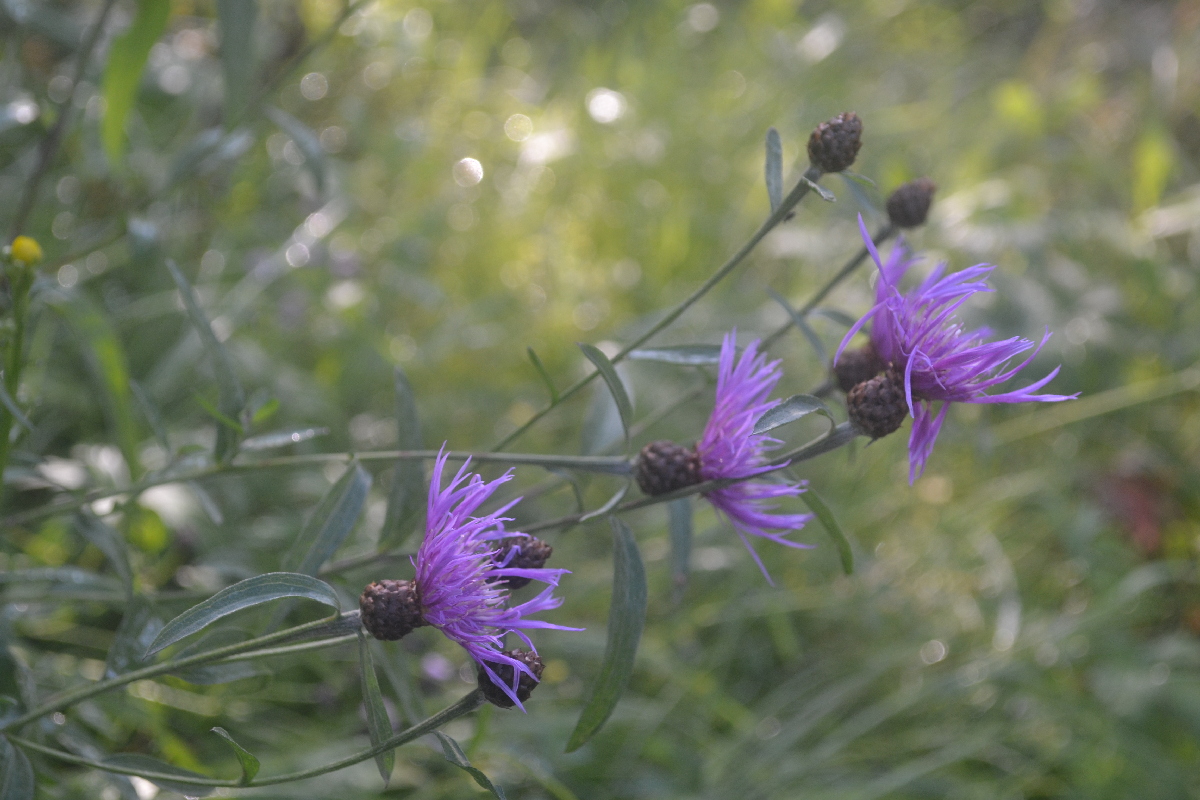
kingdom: Plantae
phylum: Tracheophyta
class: Magnoliopsida
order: Asterales
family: Asteraceae
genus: Centaurea
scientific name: Centaurea jacea
